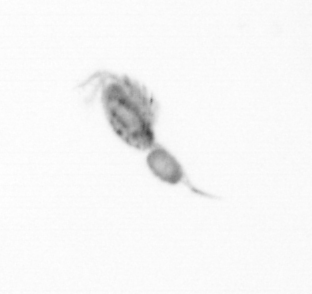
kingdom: Animalia
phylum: Arthropoda
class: Copepoda
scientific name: Copepoda
